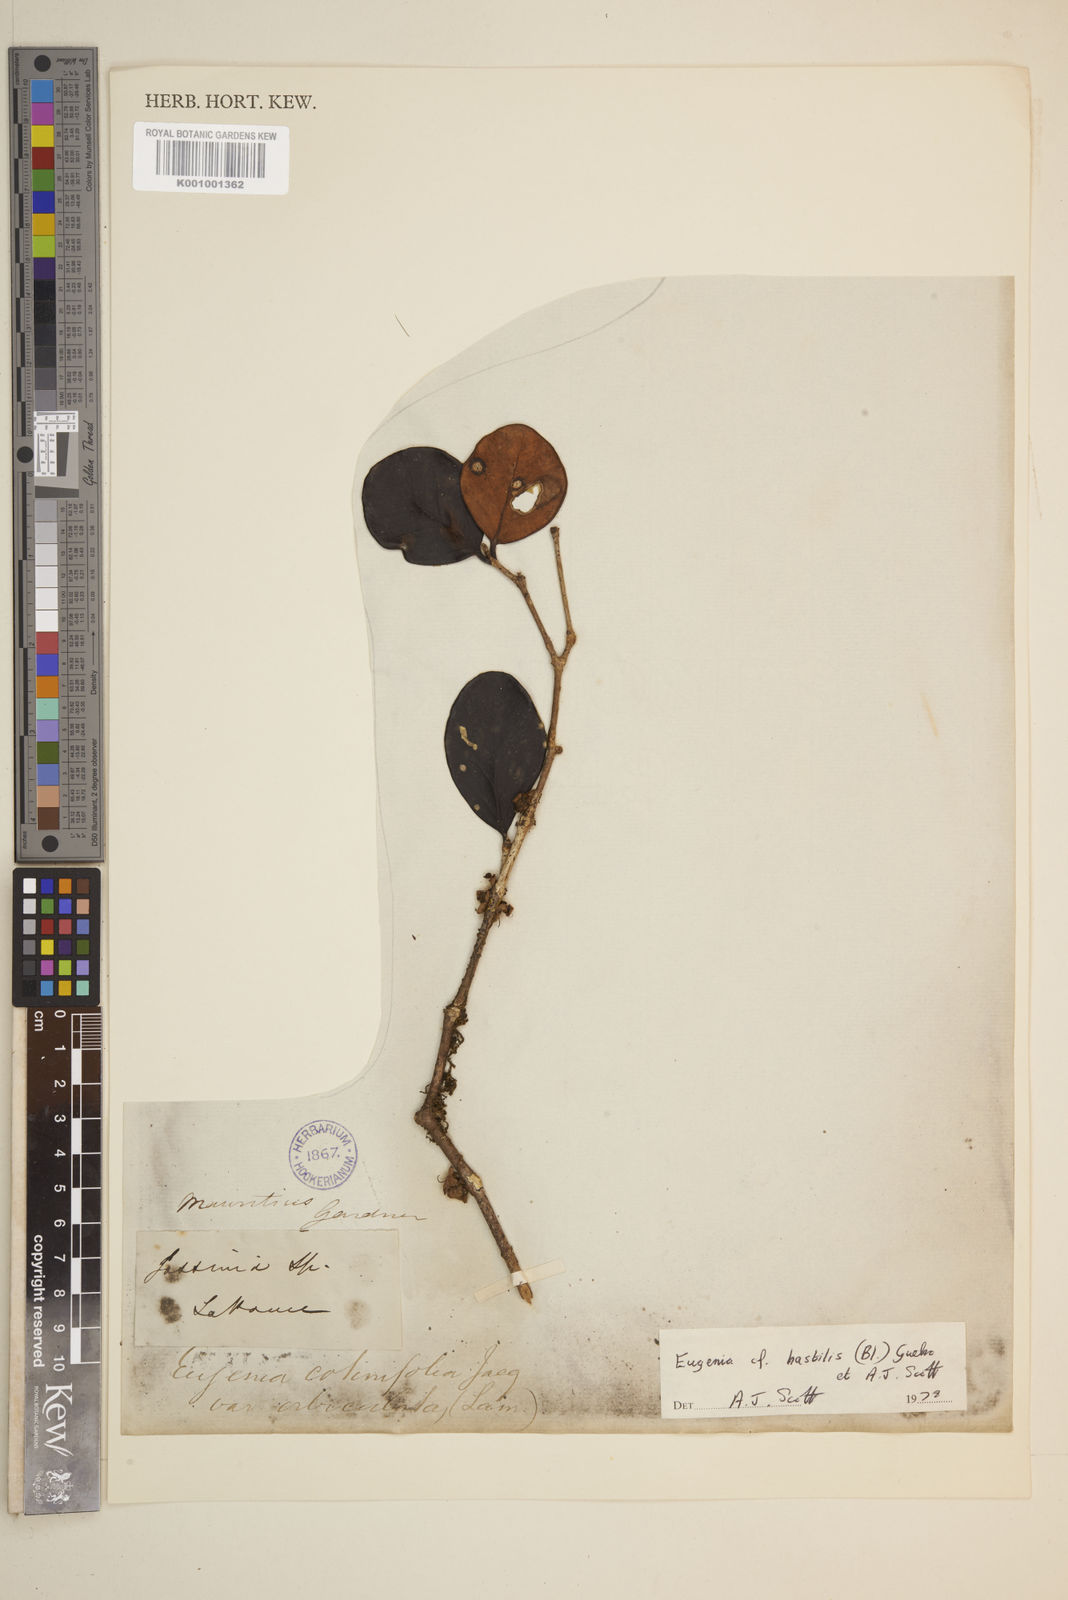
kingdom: Plantae
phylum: Tracheophyta
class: Magnoliopsida
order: Myrtales
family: Myrtaceae
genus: Eugenia
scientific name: Eugenia
